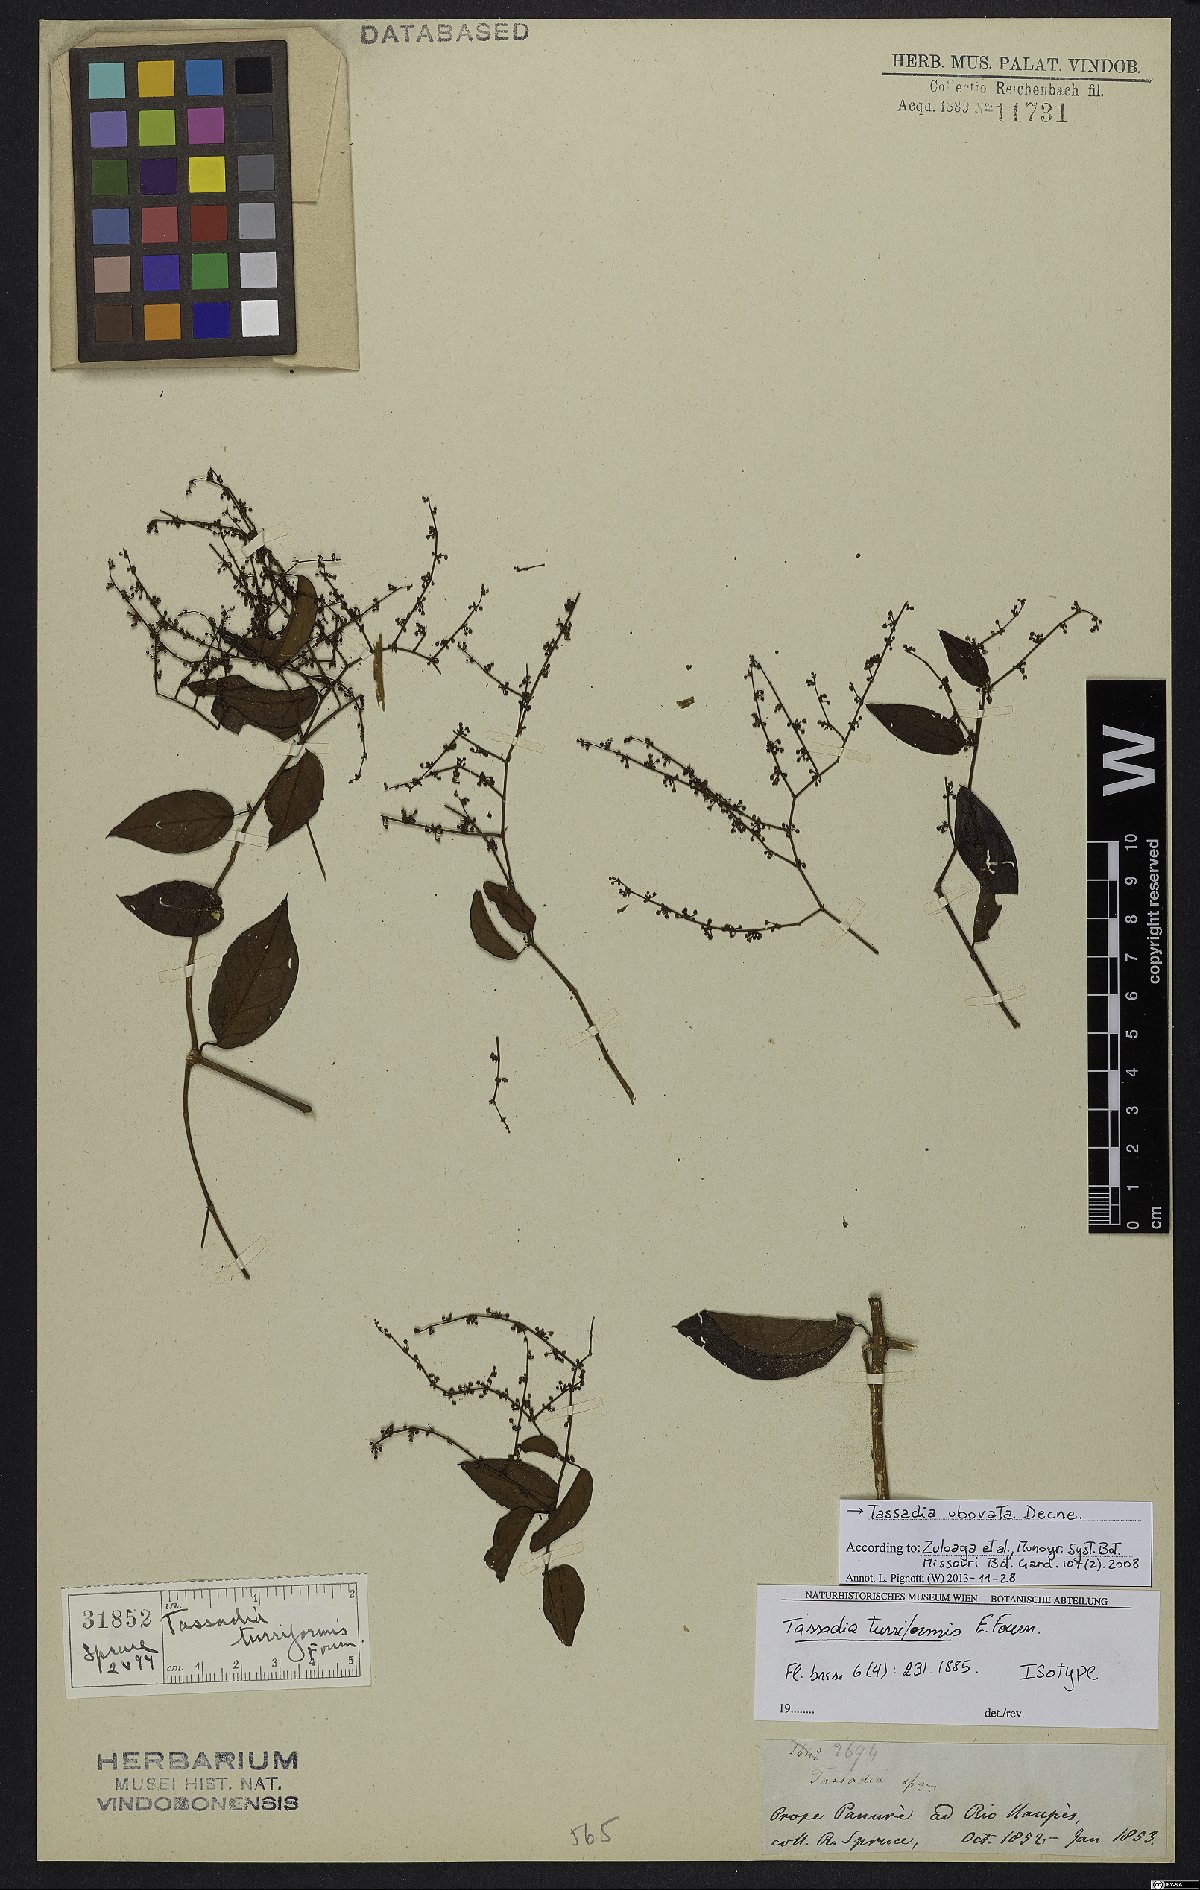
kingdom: Plantae
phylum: Tracheophyta
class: Magnoliopsida
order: Gentianales
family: Apocynaceae
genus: Tassadia
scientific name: Tassadia obovata
